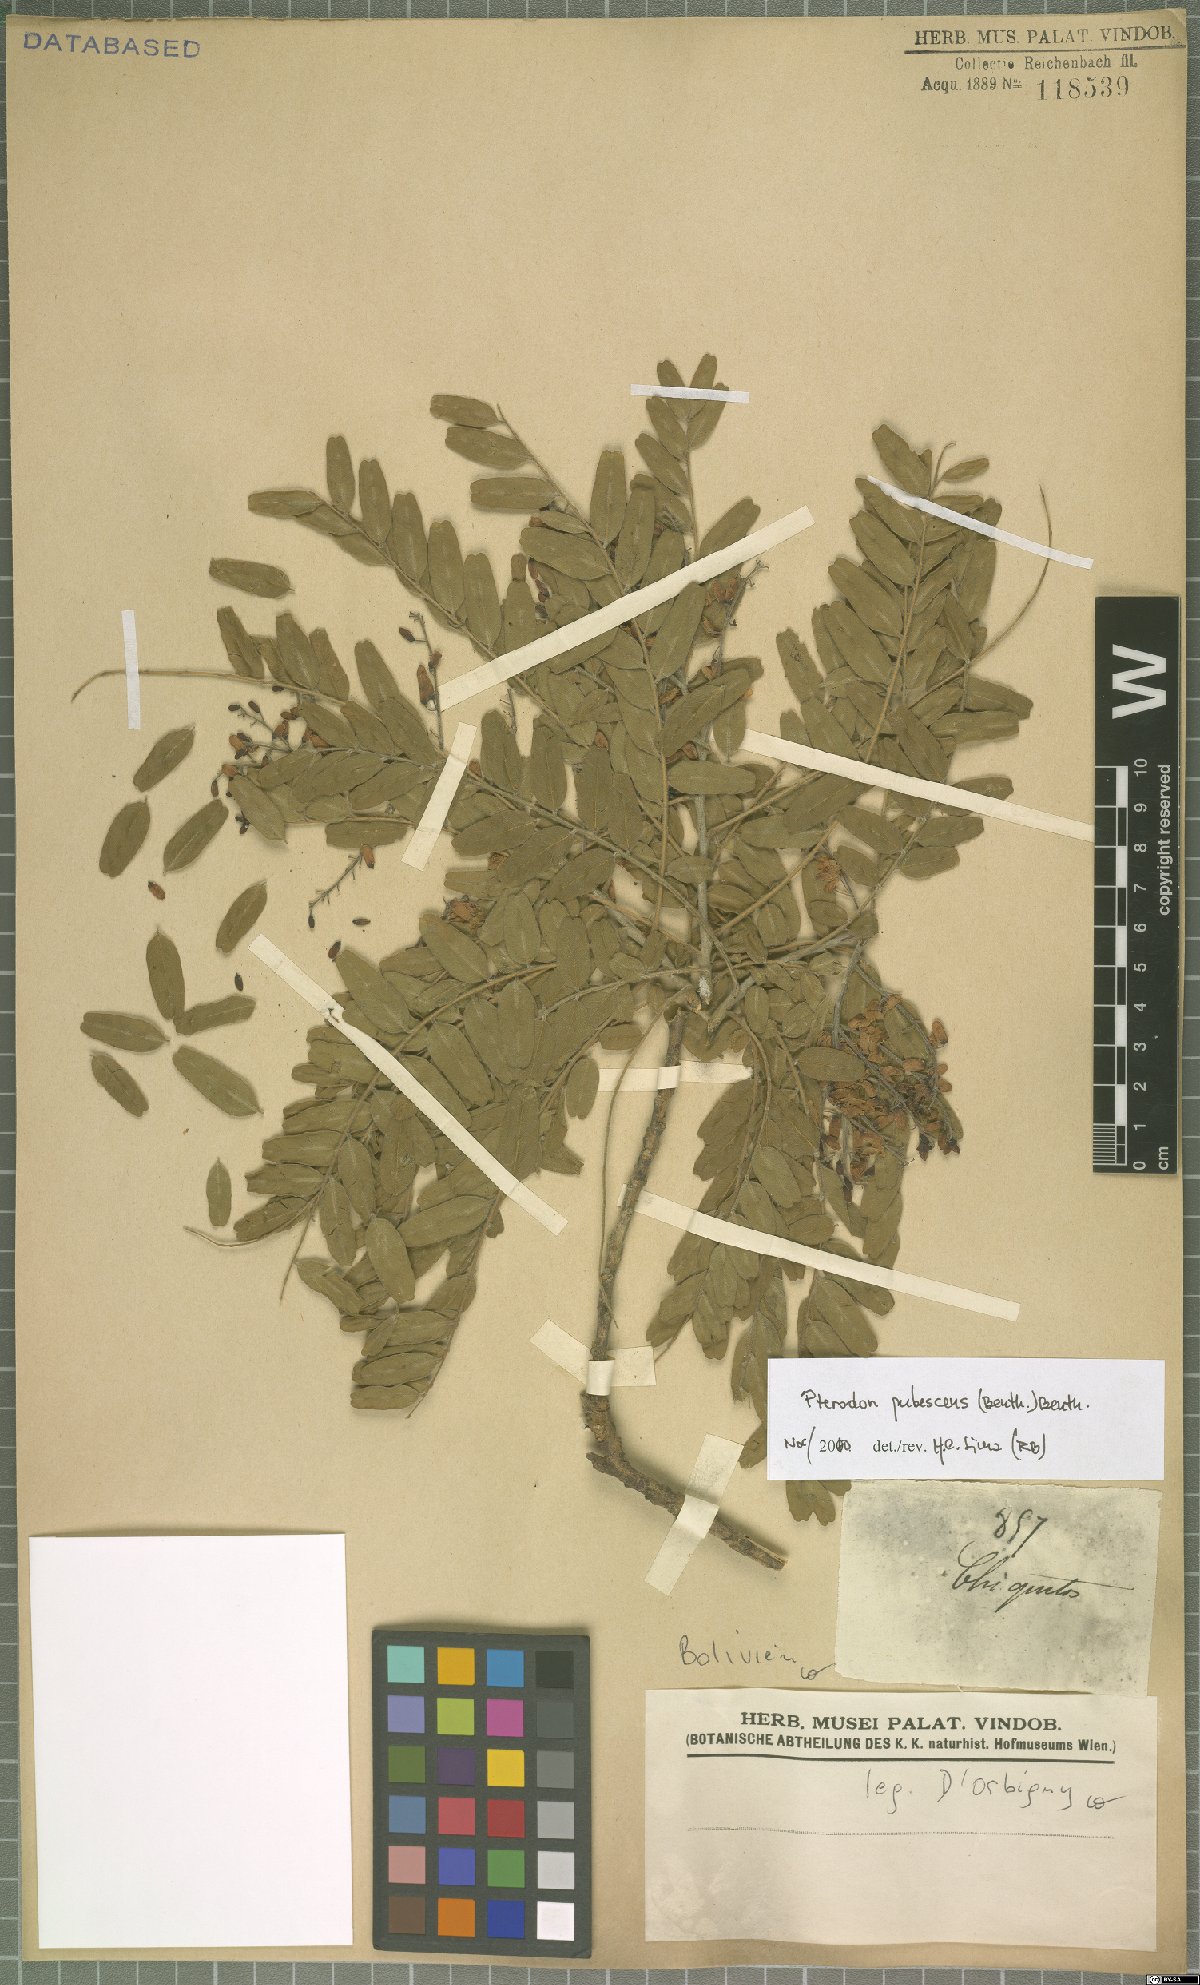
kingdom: Plantae
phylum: Tracheophyta
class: Magnoliopsida
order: Fabales
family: Fabaceae
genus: Pterodon
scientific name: Pterodon emarginatus
